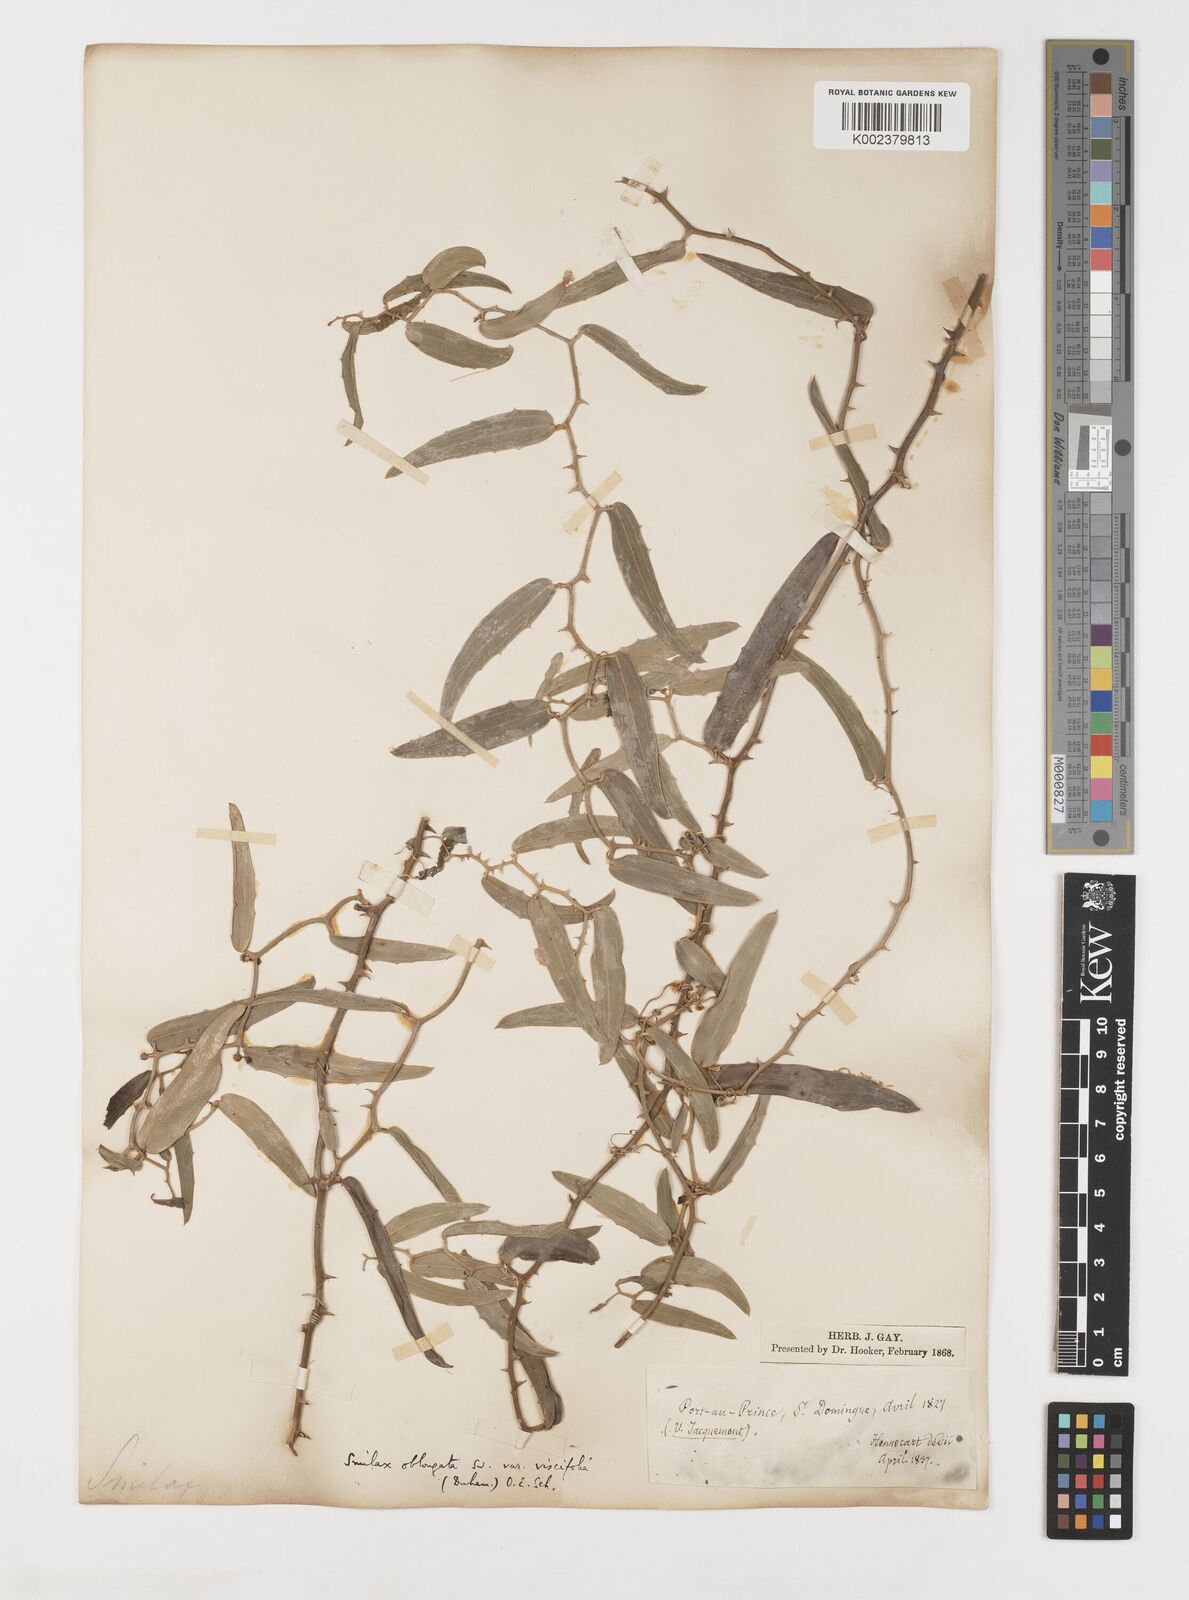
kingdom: Plantae
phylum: Tracheophyta
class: Liliopsida
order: Liliales
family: Smilacaceae
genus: Smilax
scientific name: Smilax oblongata
